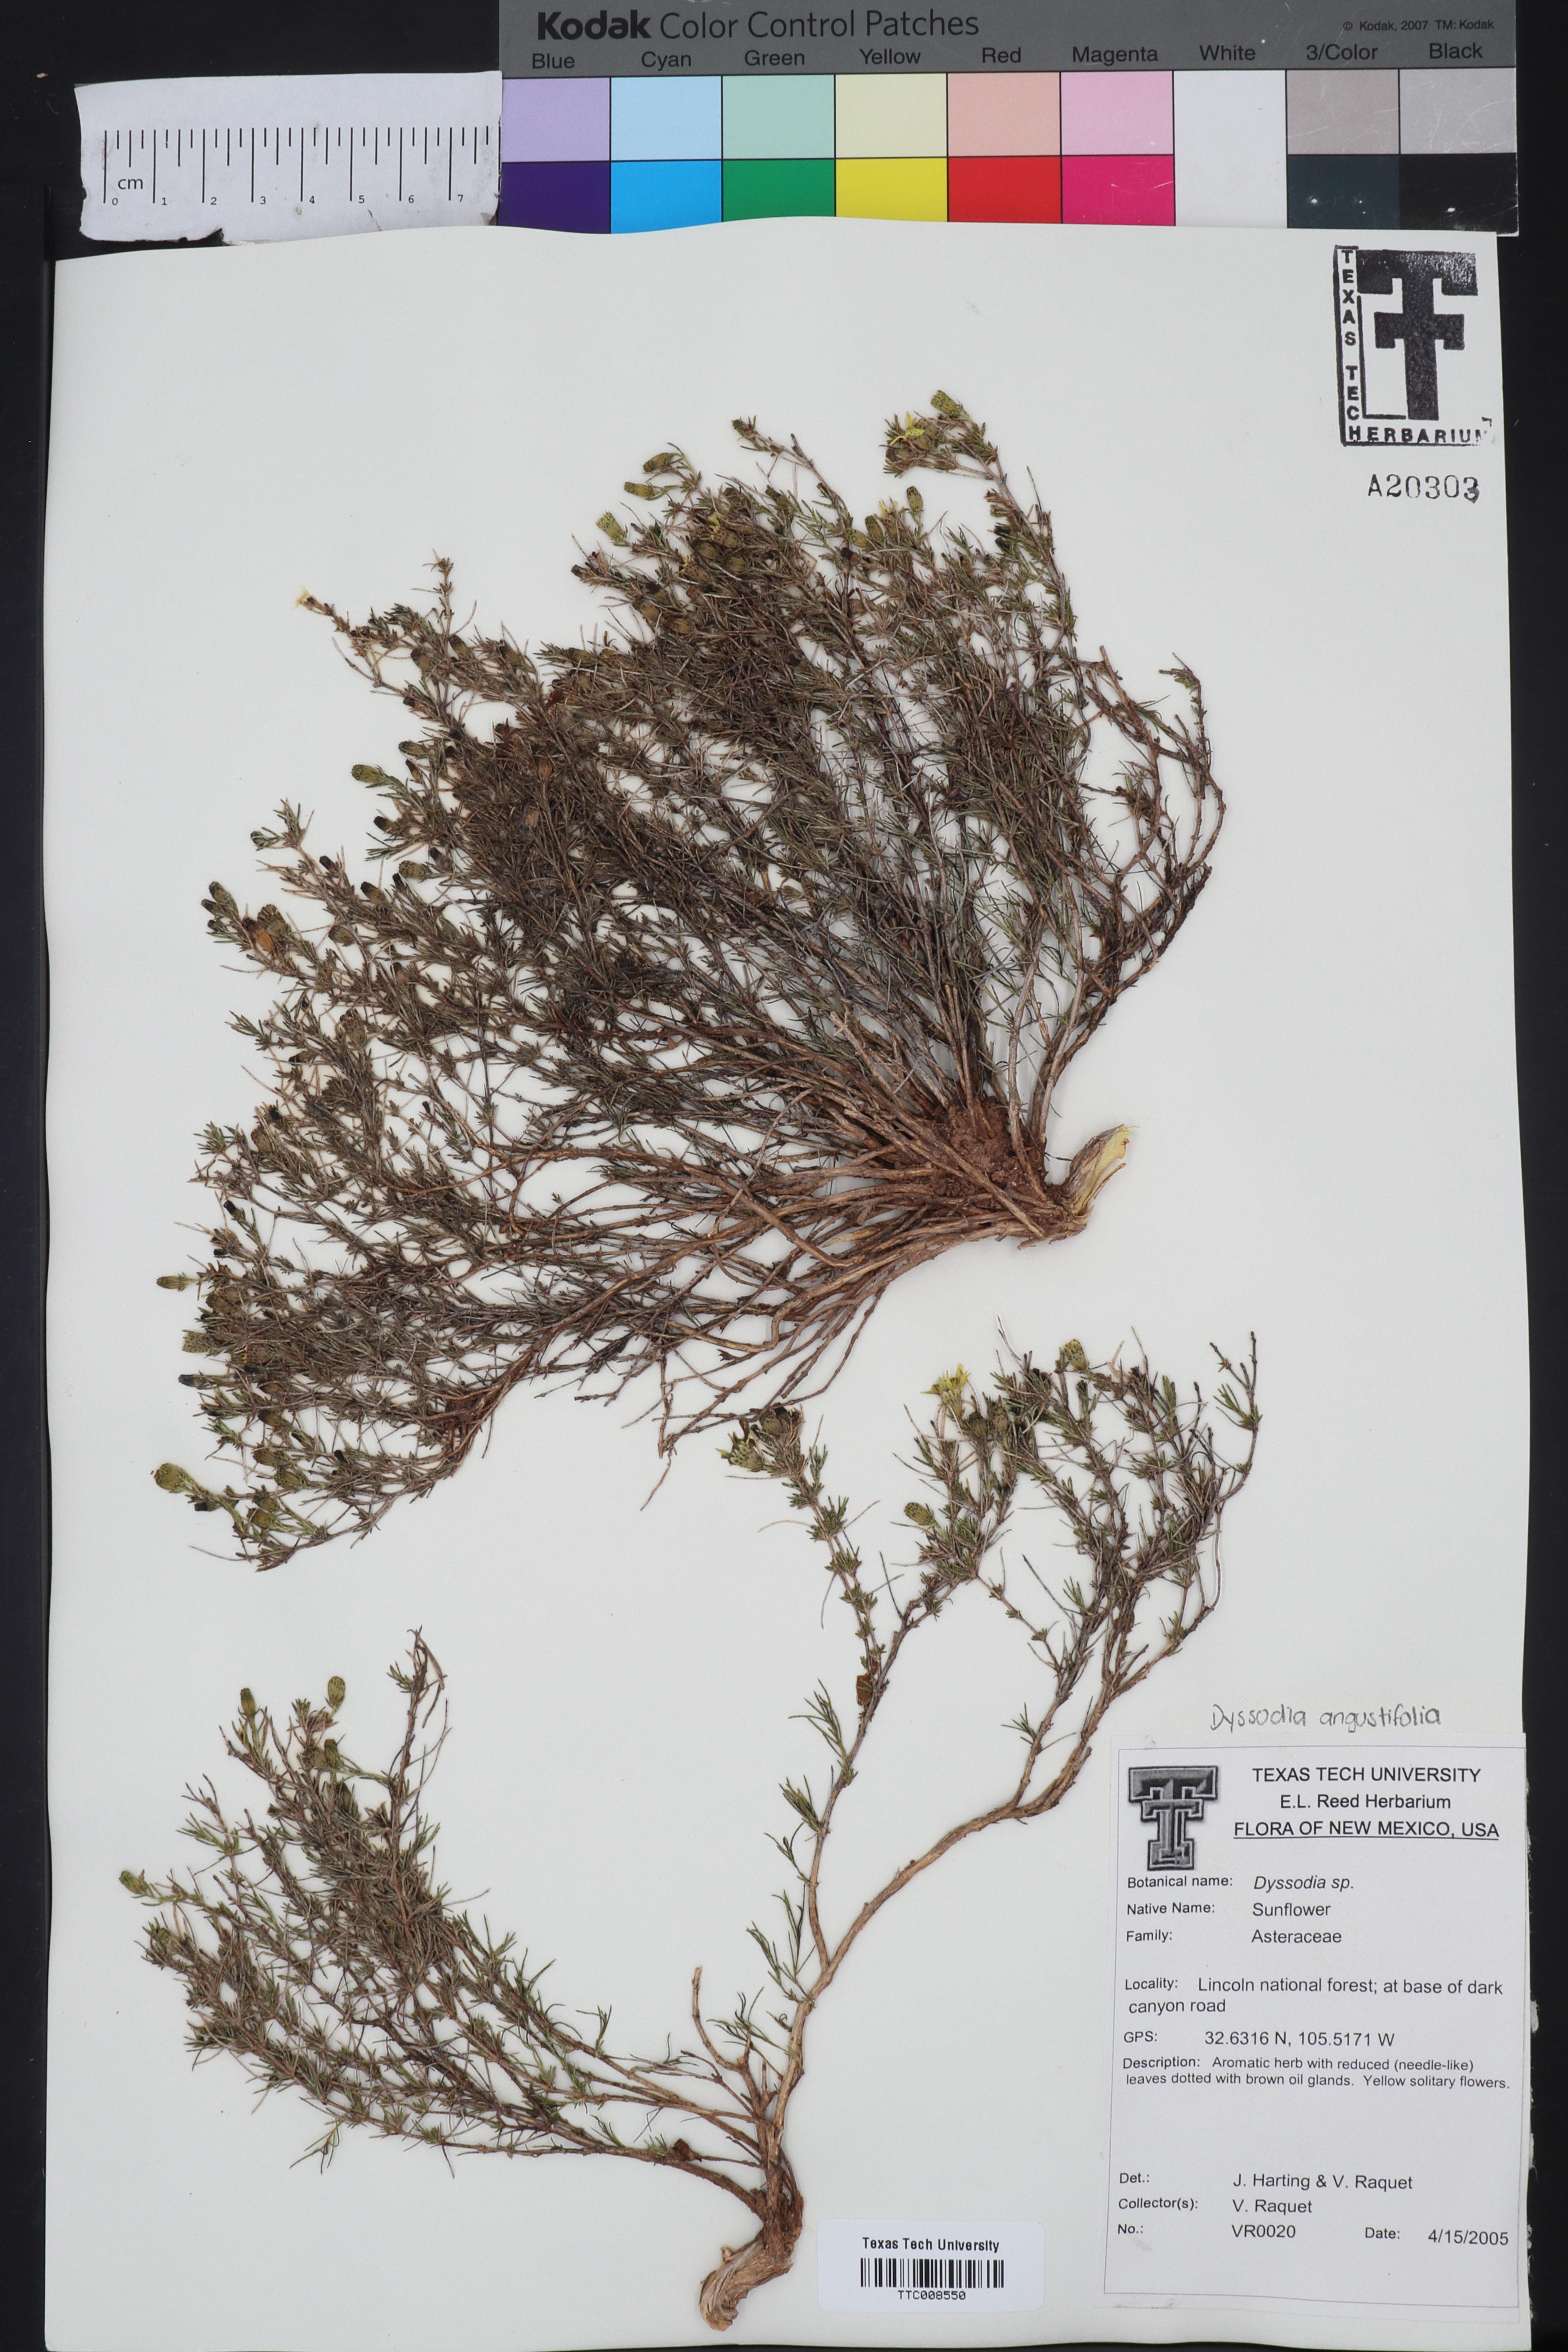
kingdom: Plantae
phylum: Tracheophyta
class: Magnoliopsida
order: Asterales
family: Asteraceae
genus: Dyssodia
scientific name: Dyssodia
